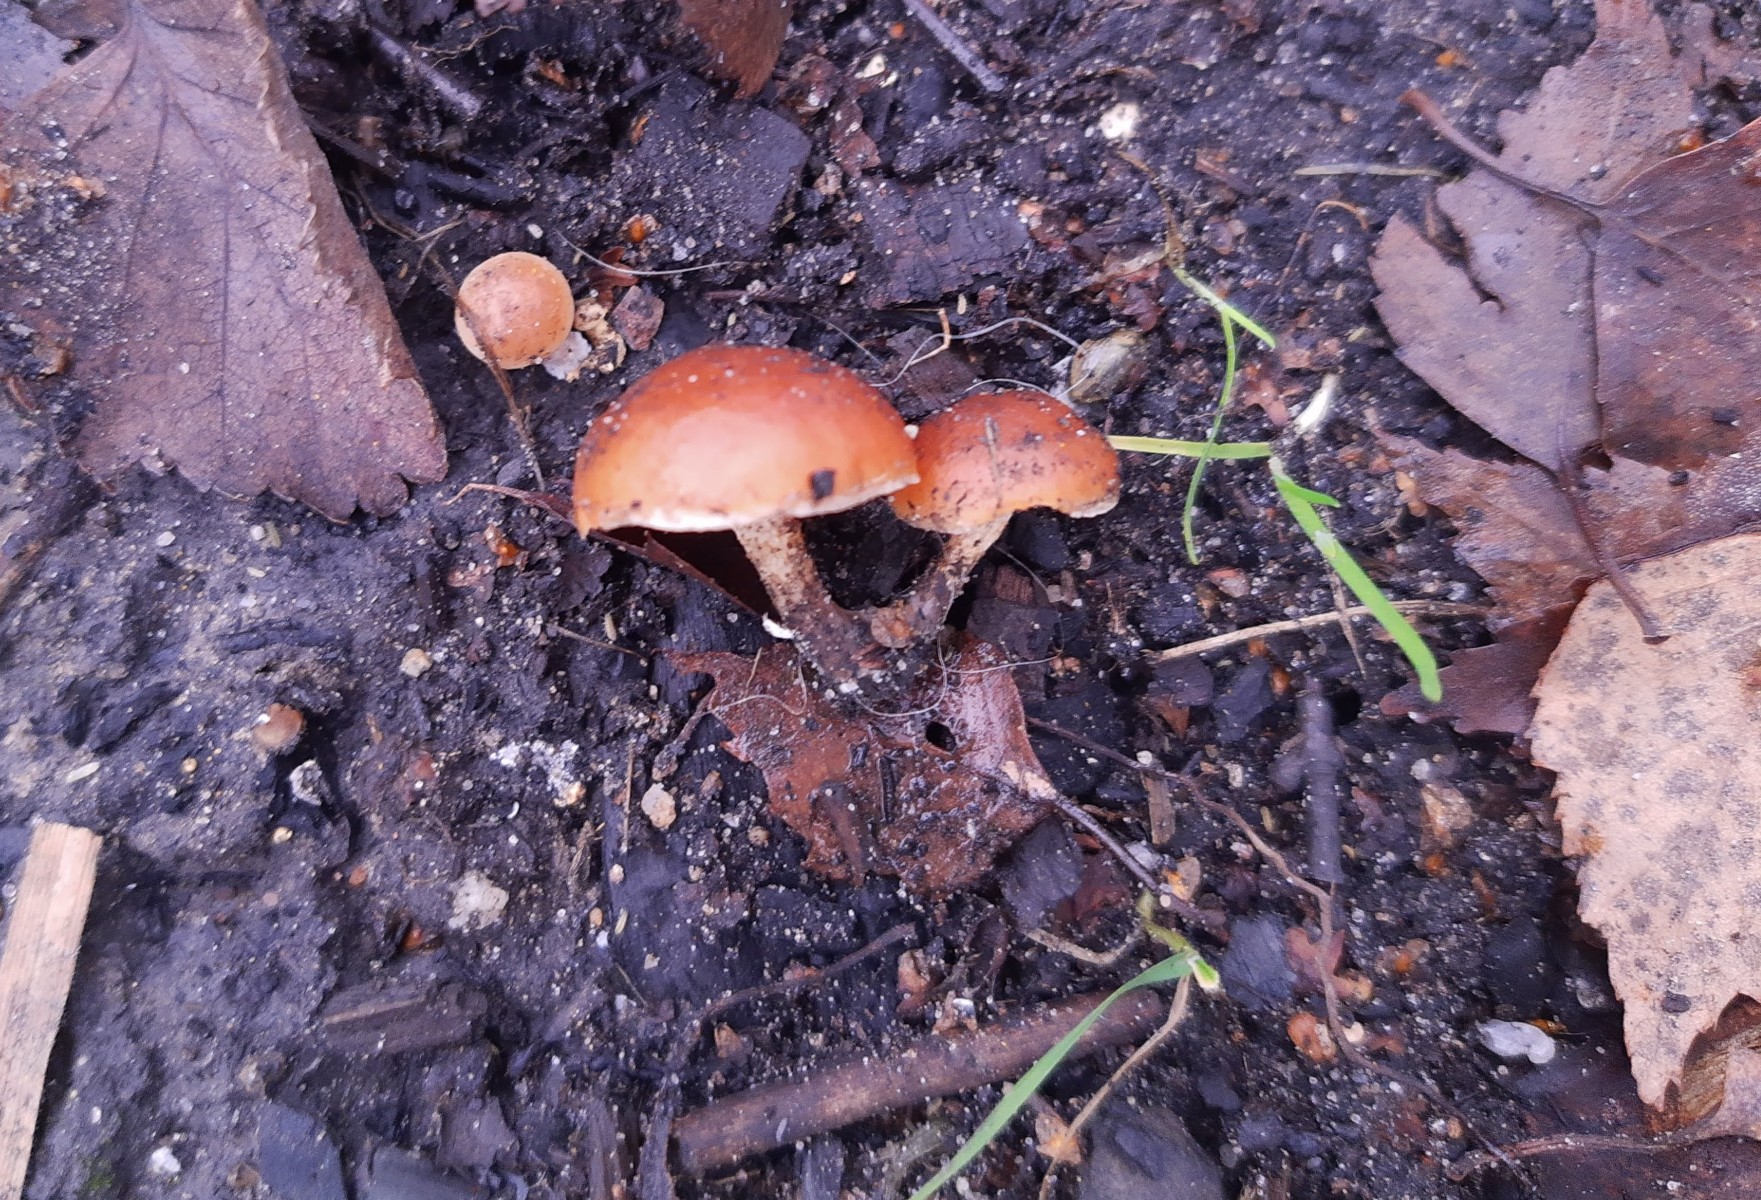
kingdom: Fungi
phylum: Basidiomycota
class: Agaricomycetes
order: Agaricales
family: Strophariaceae
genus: Pholiota
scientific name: Pholiota carbonaria
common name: kul-skælhat
